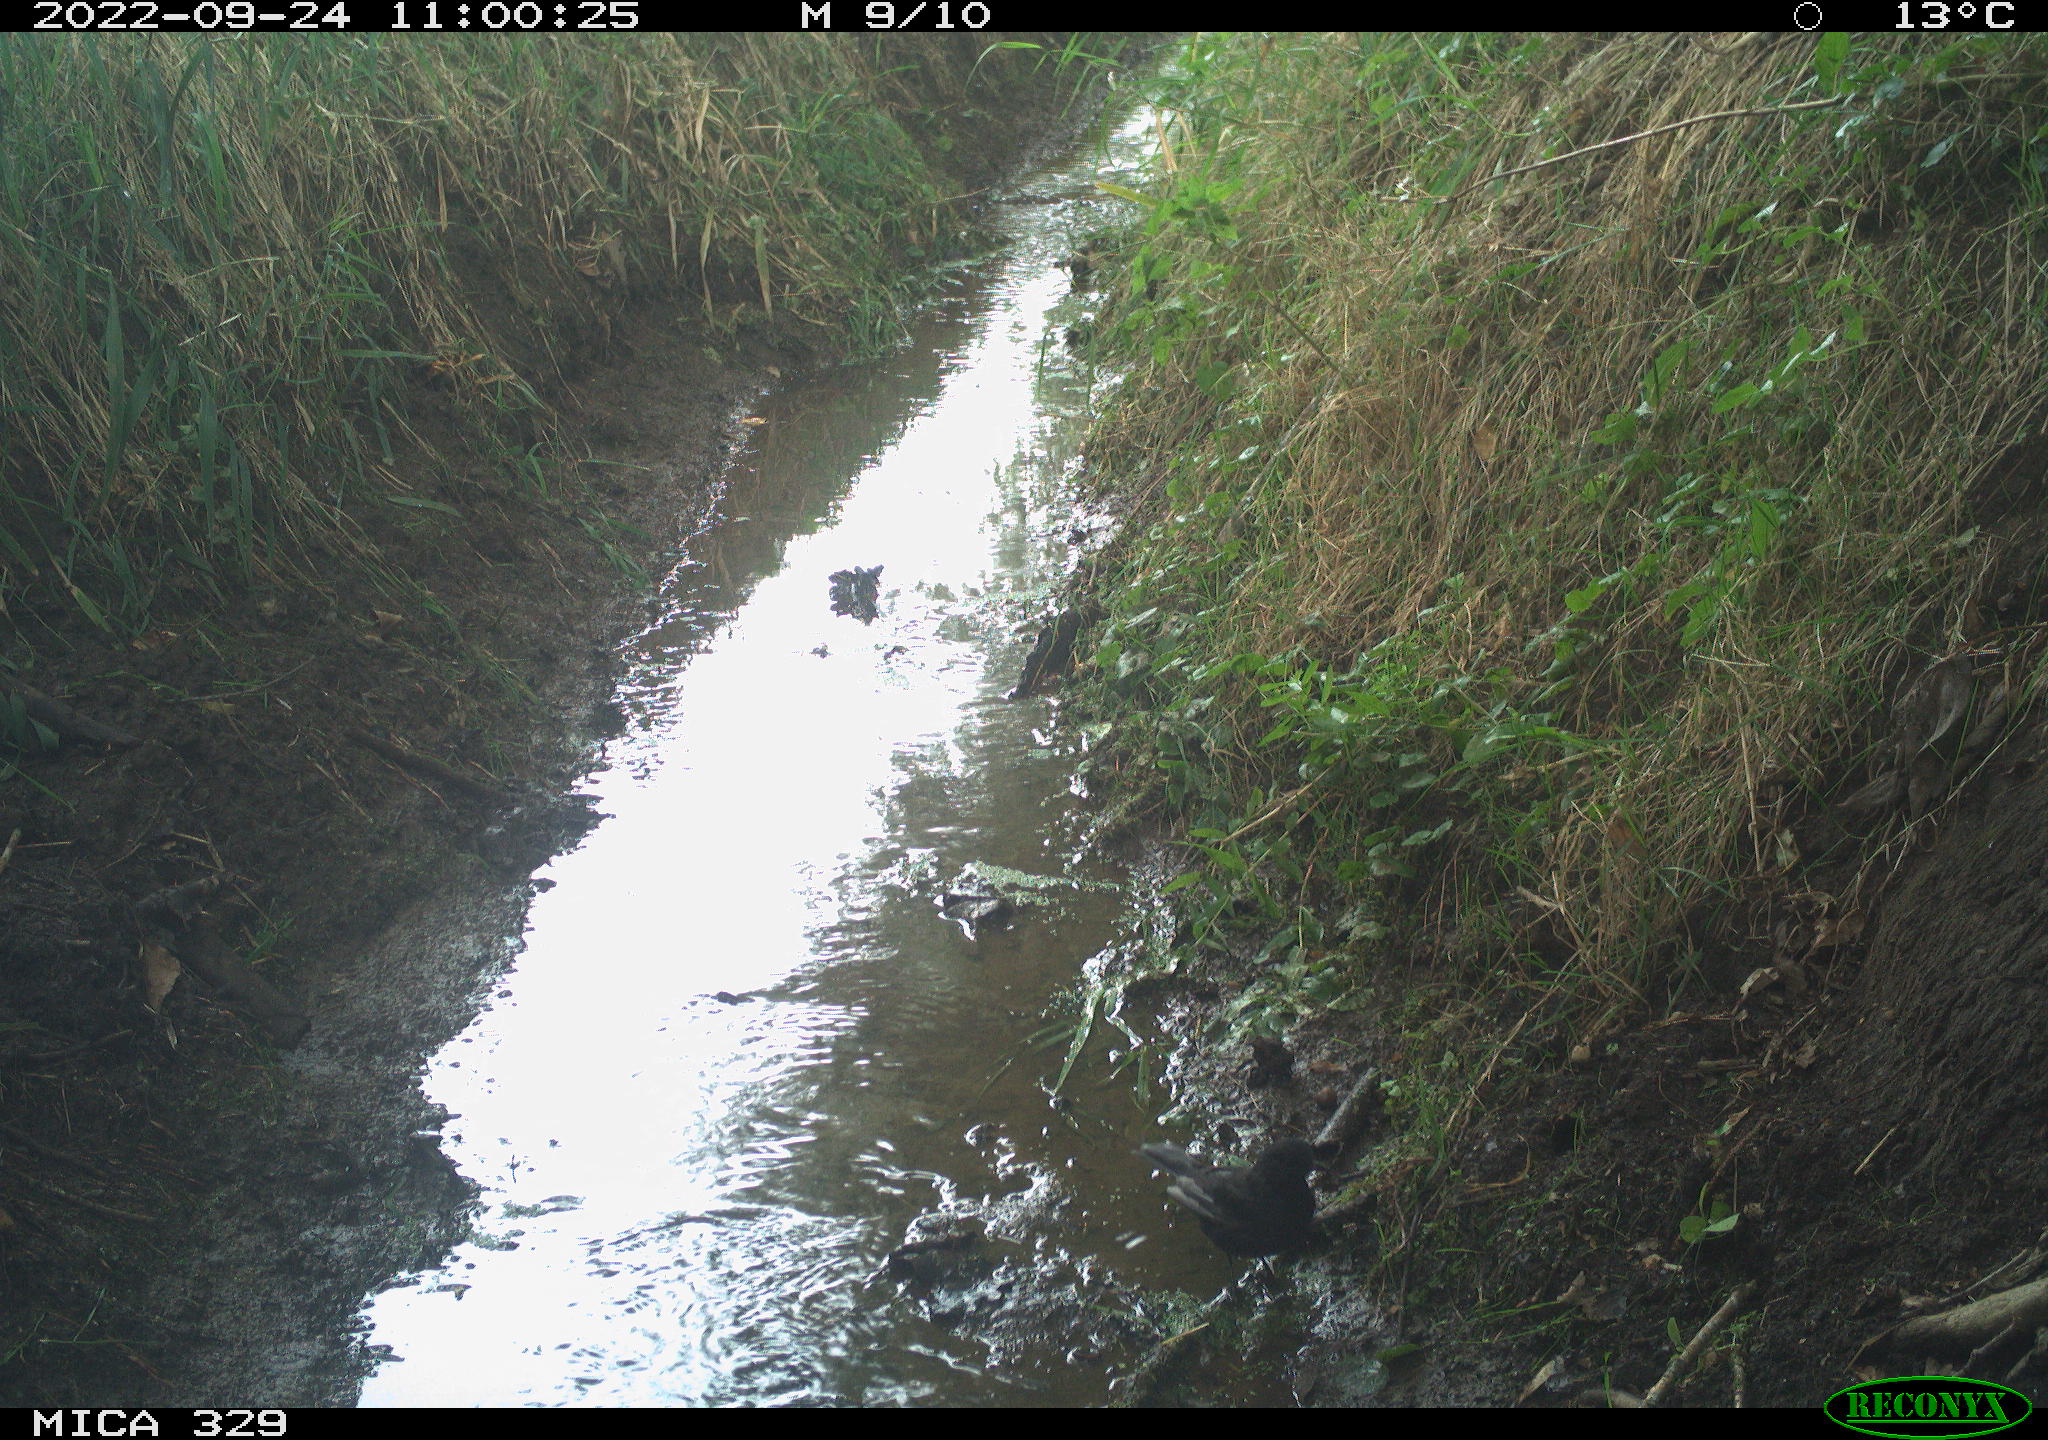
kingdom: Animalia
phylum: Chordata
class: Aves
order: Passeriformes
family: Turdidae
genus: Turdus
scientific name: Turdus merula
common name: Common blackbird
